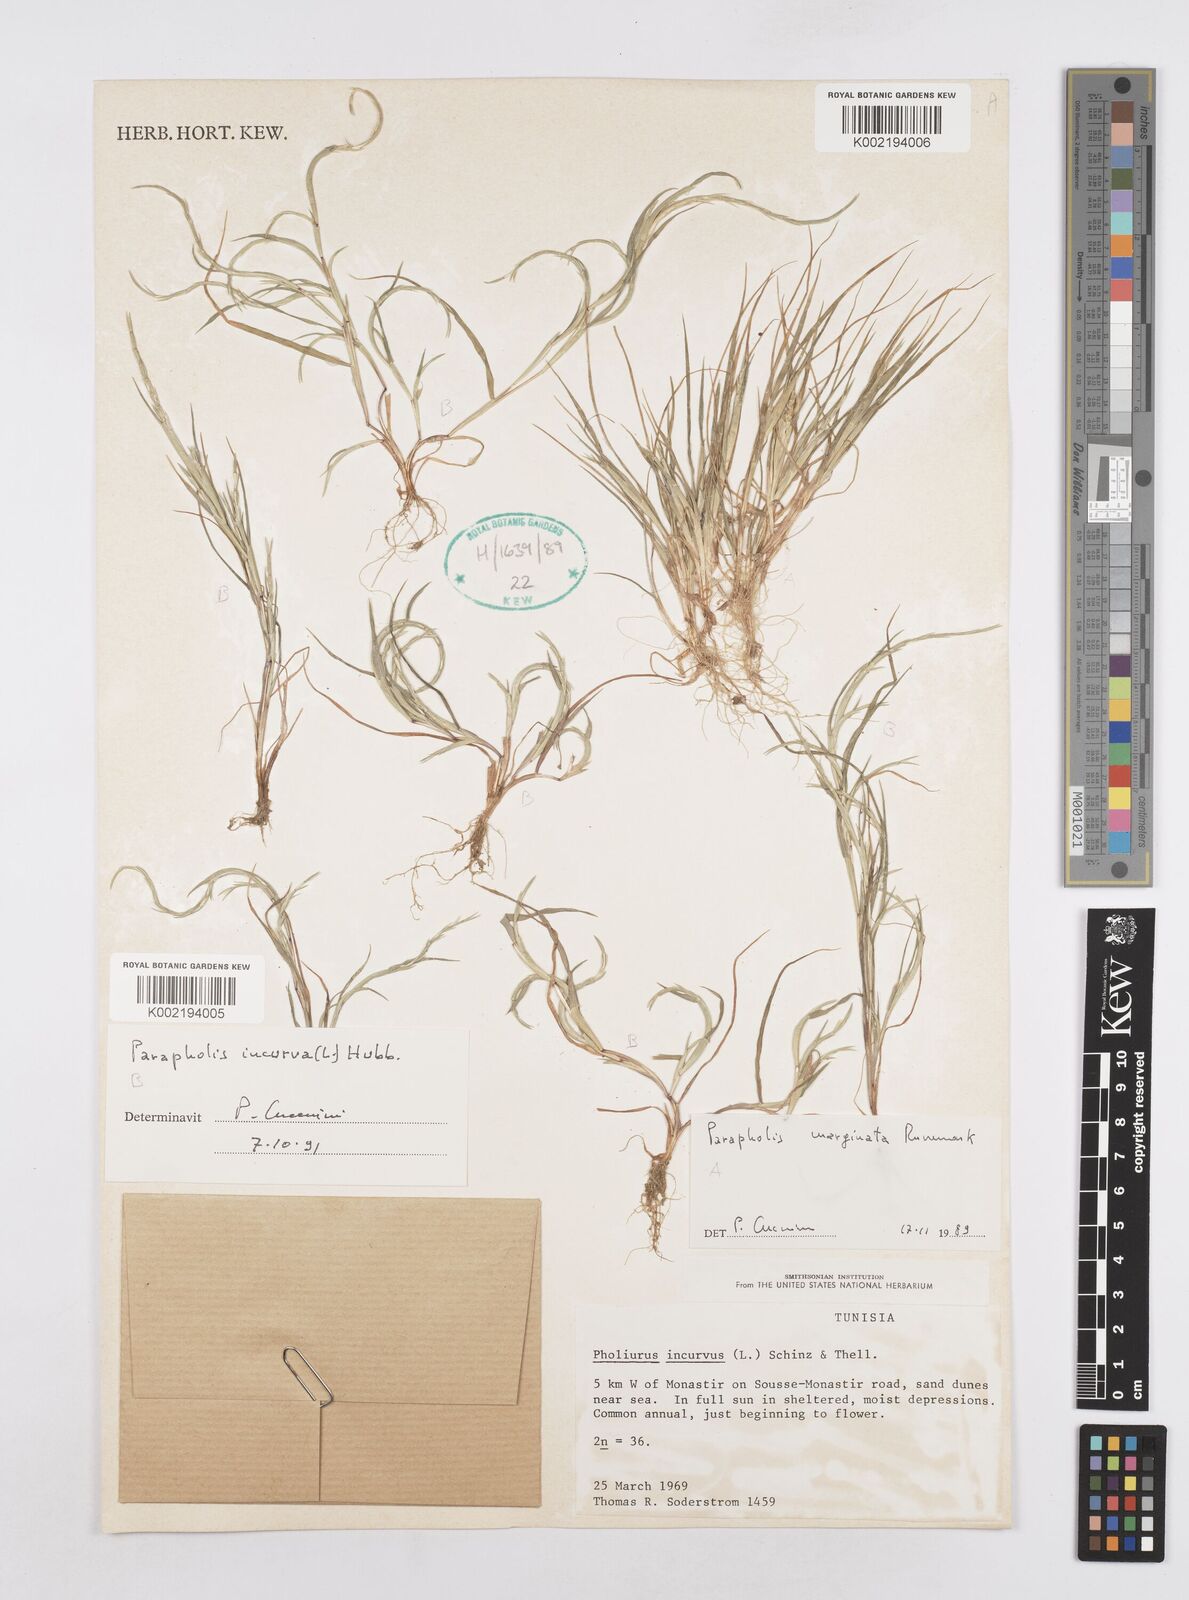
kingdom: Plantae
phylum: Tracheophyta
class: Liliopsida
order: Poales
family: Poaceae
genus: Parapholis
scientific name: Parapholis incurva
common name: Curved sicklegrass
